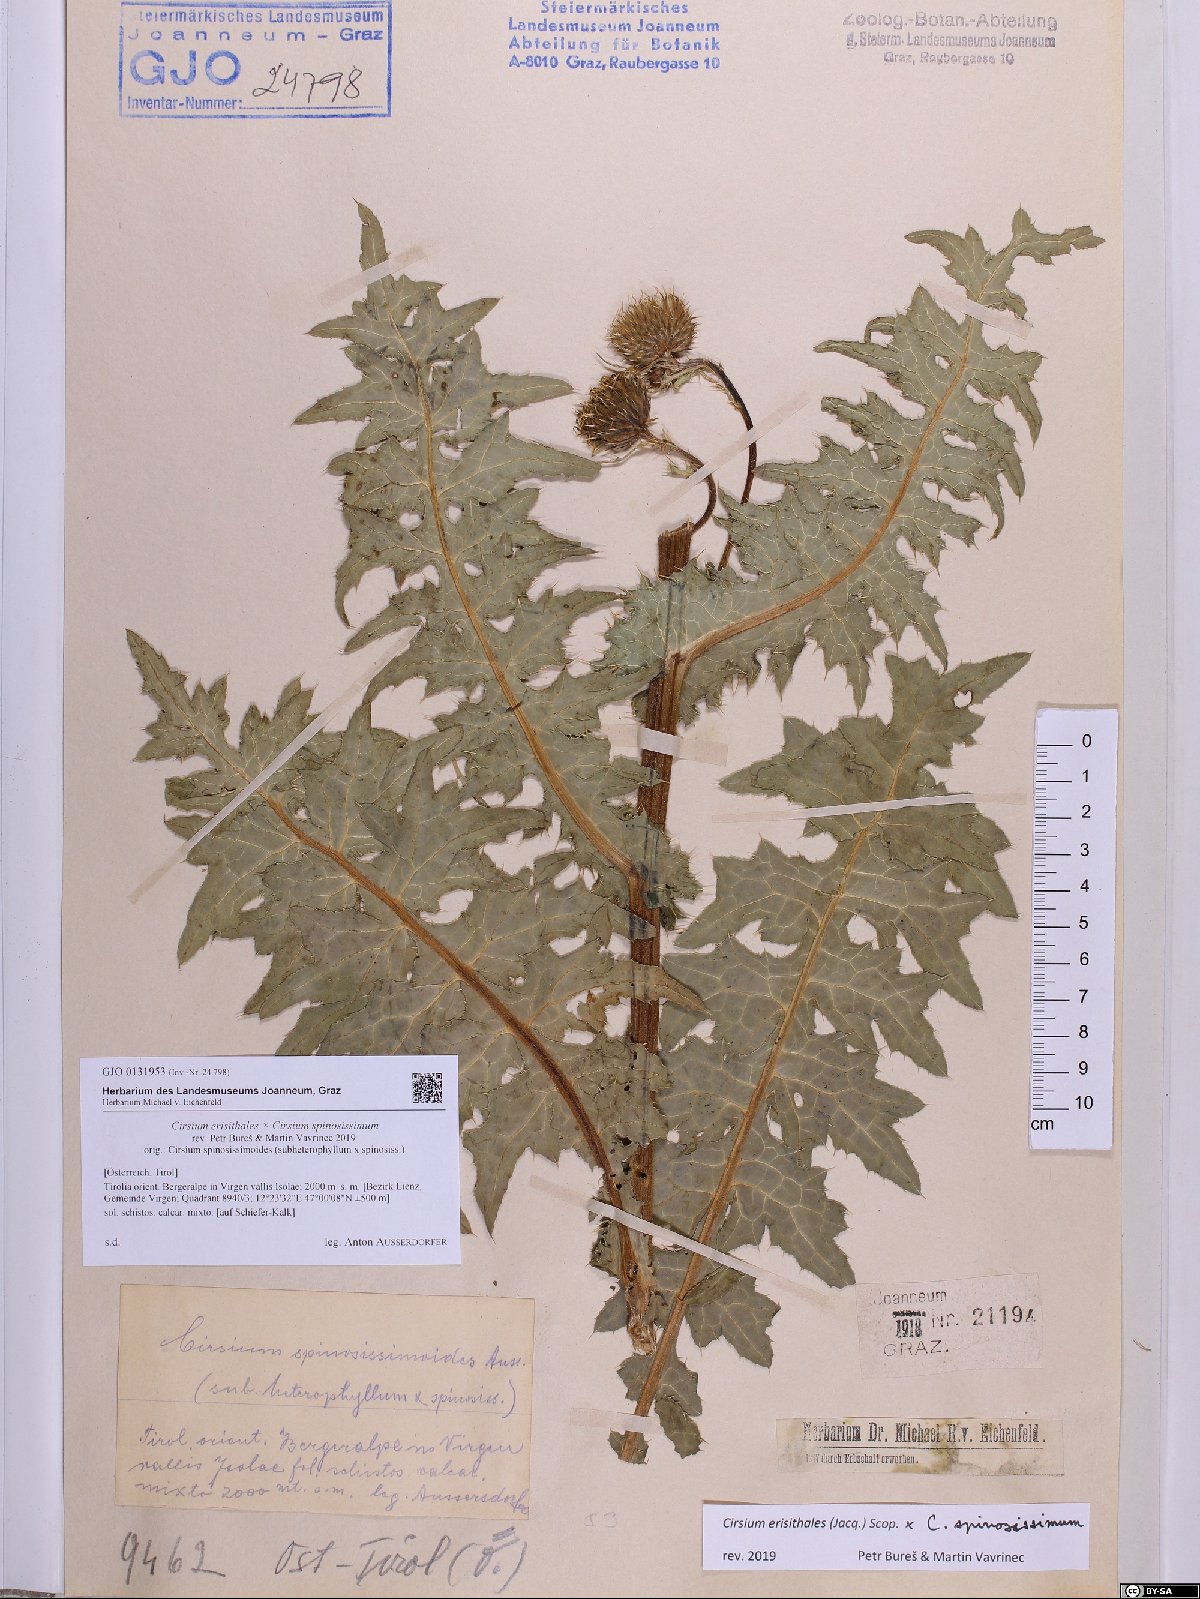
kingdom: Plantae
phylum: Tracheophyta
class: Magnoliopsida
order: Asterales
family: Asteraceae
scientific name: Asteraceae
